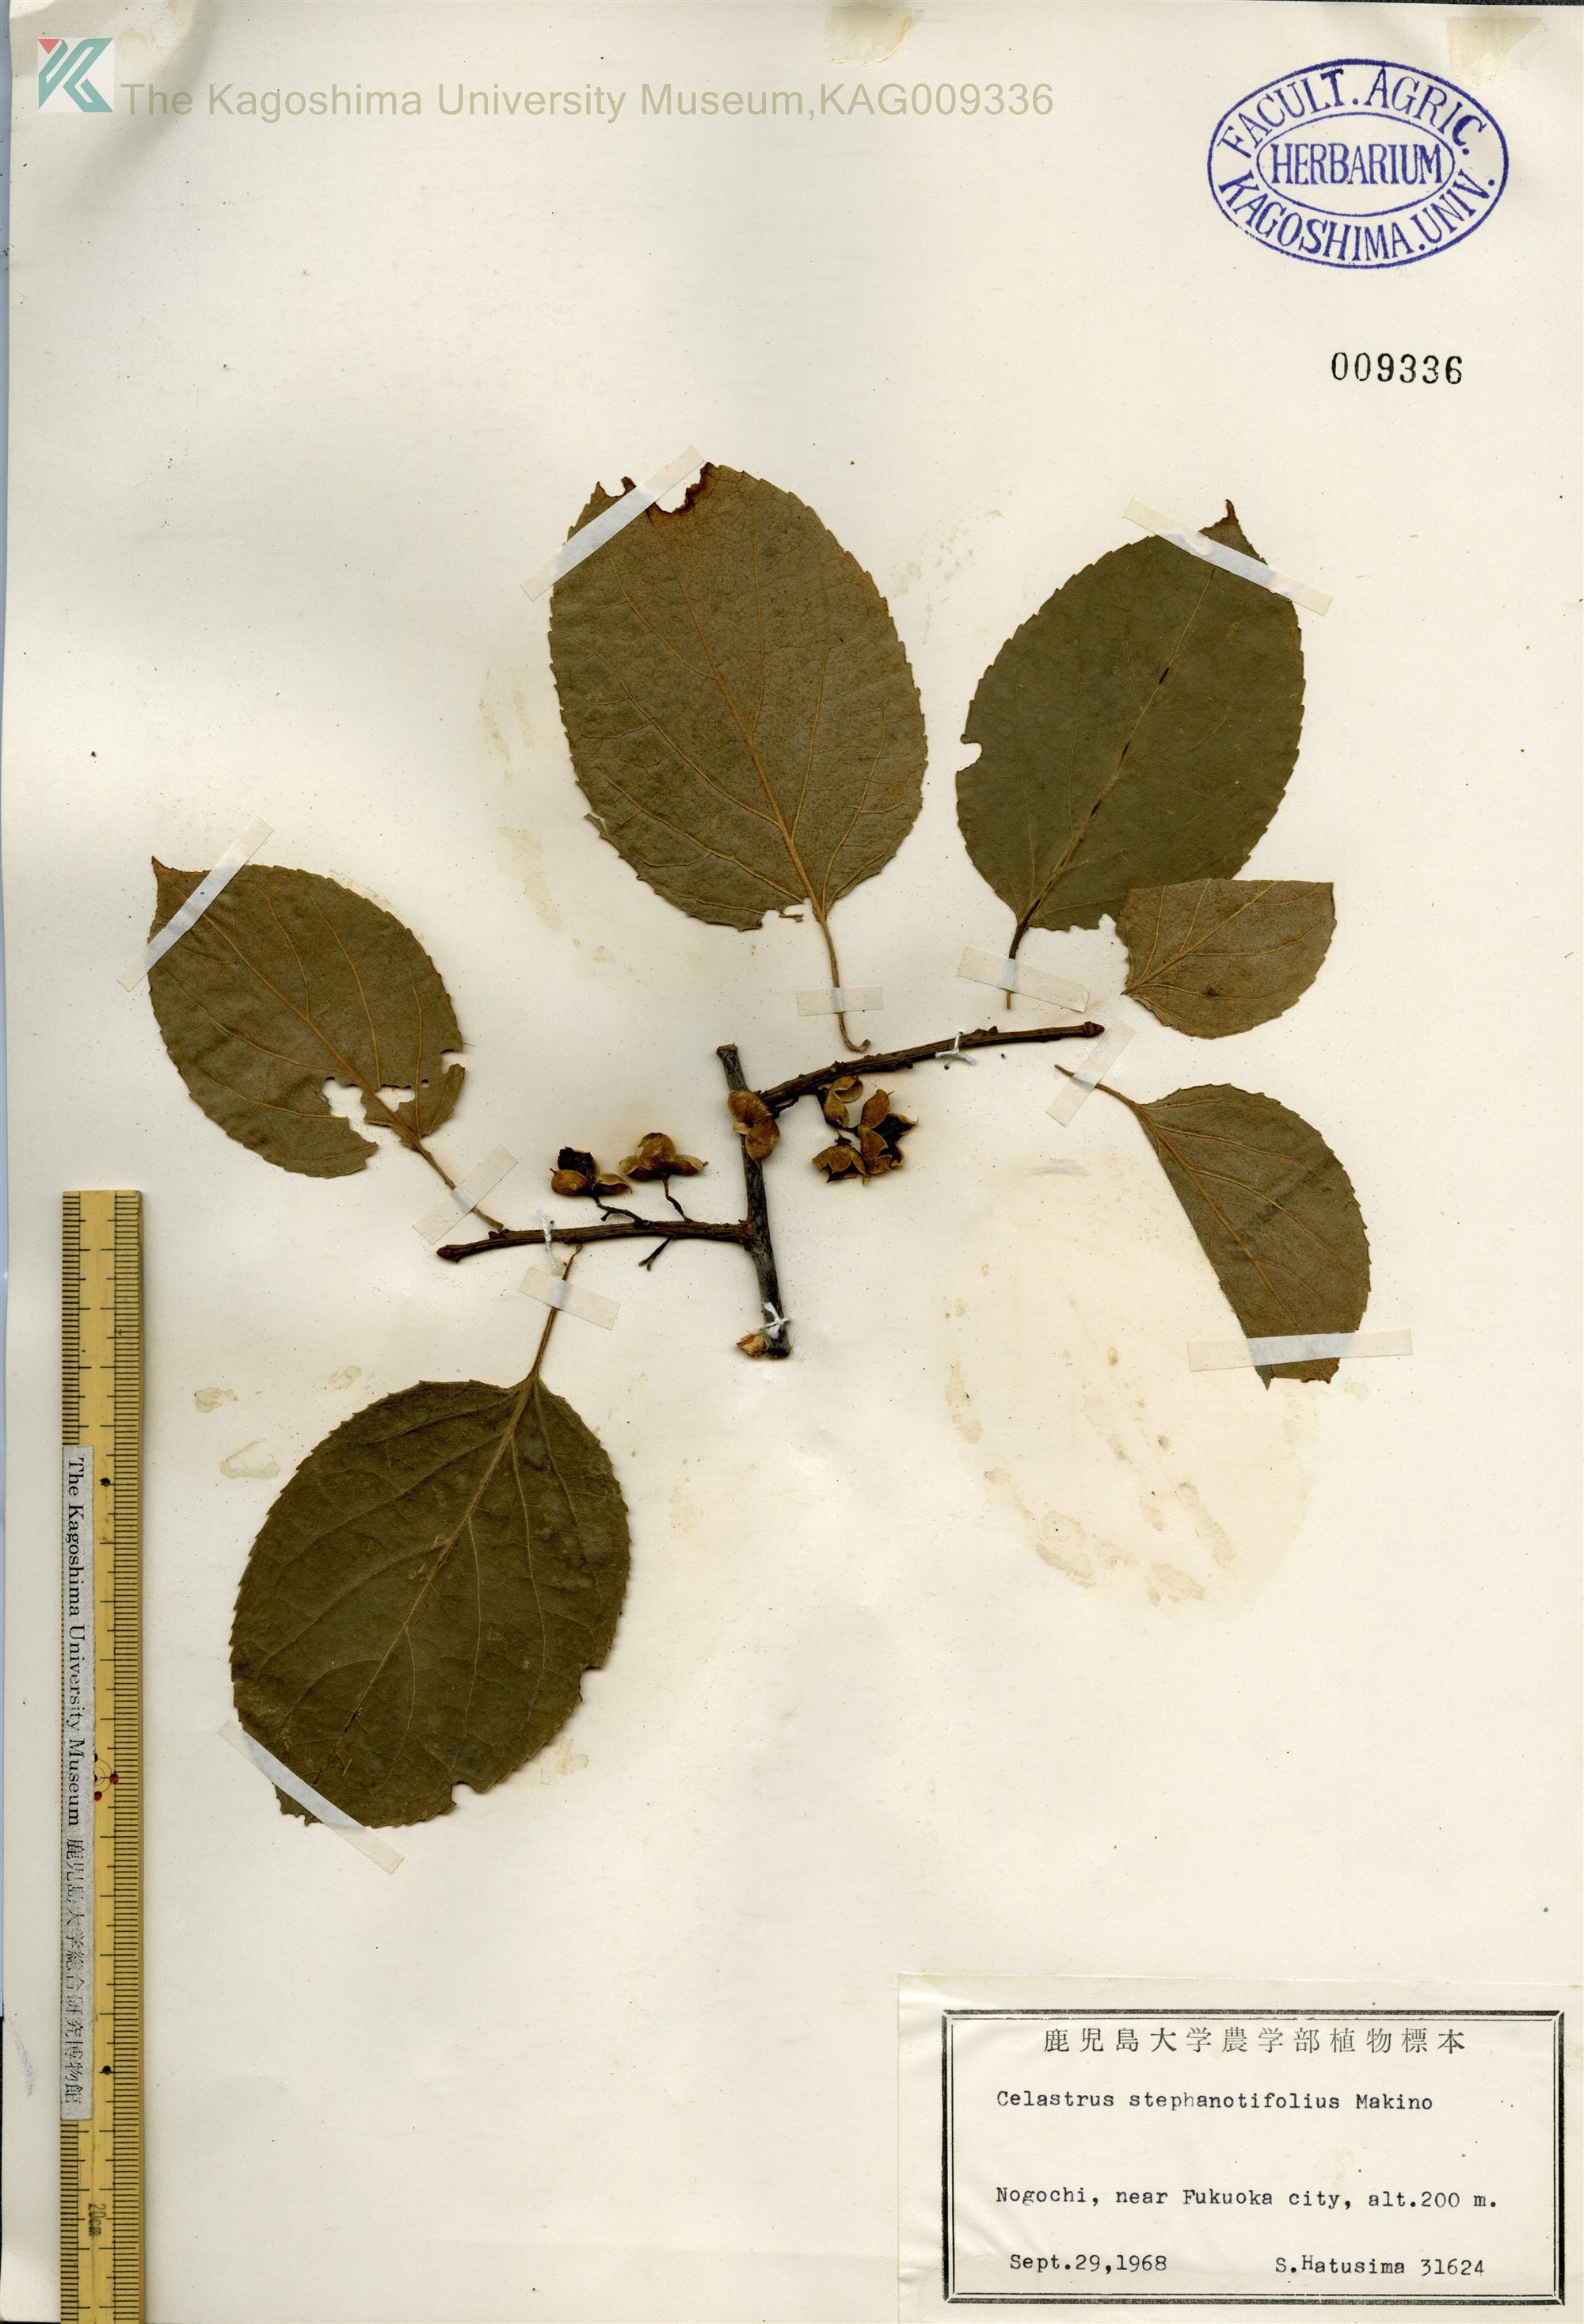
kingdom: Plantae
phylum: Tracheophyta
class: Magnoliopsida
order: Celastrales
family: Celastraceae
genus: Celastrus
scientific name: Celastrus stephanotifolius
